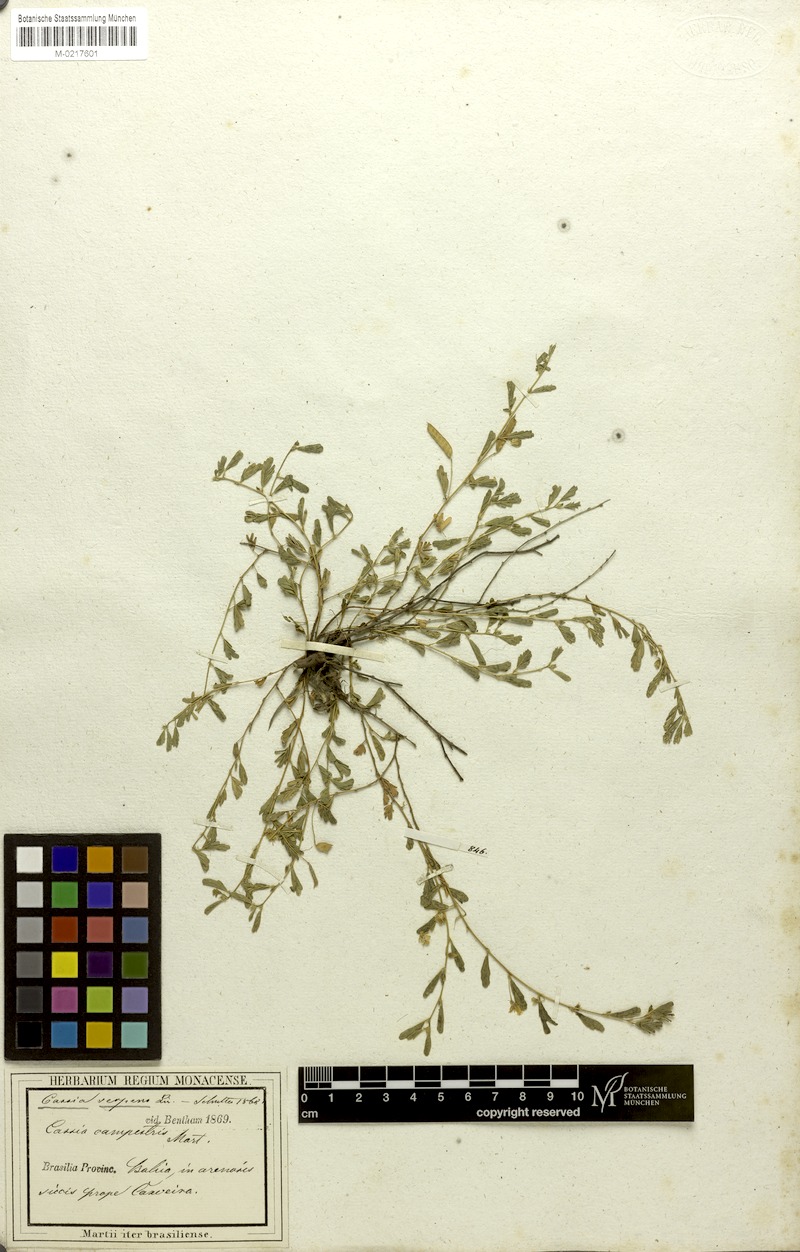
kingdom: Plantae
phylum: Tracheophyta
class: Magnoliopsida
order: Fabales
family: Fabaceae
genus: Chamaecrista
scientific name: Chamaecrista serpens
